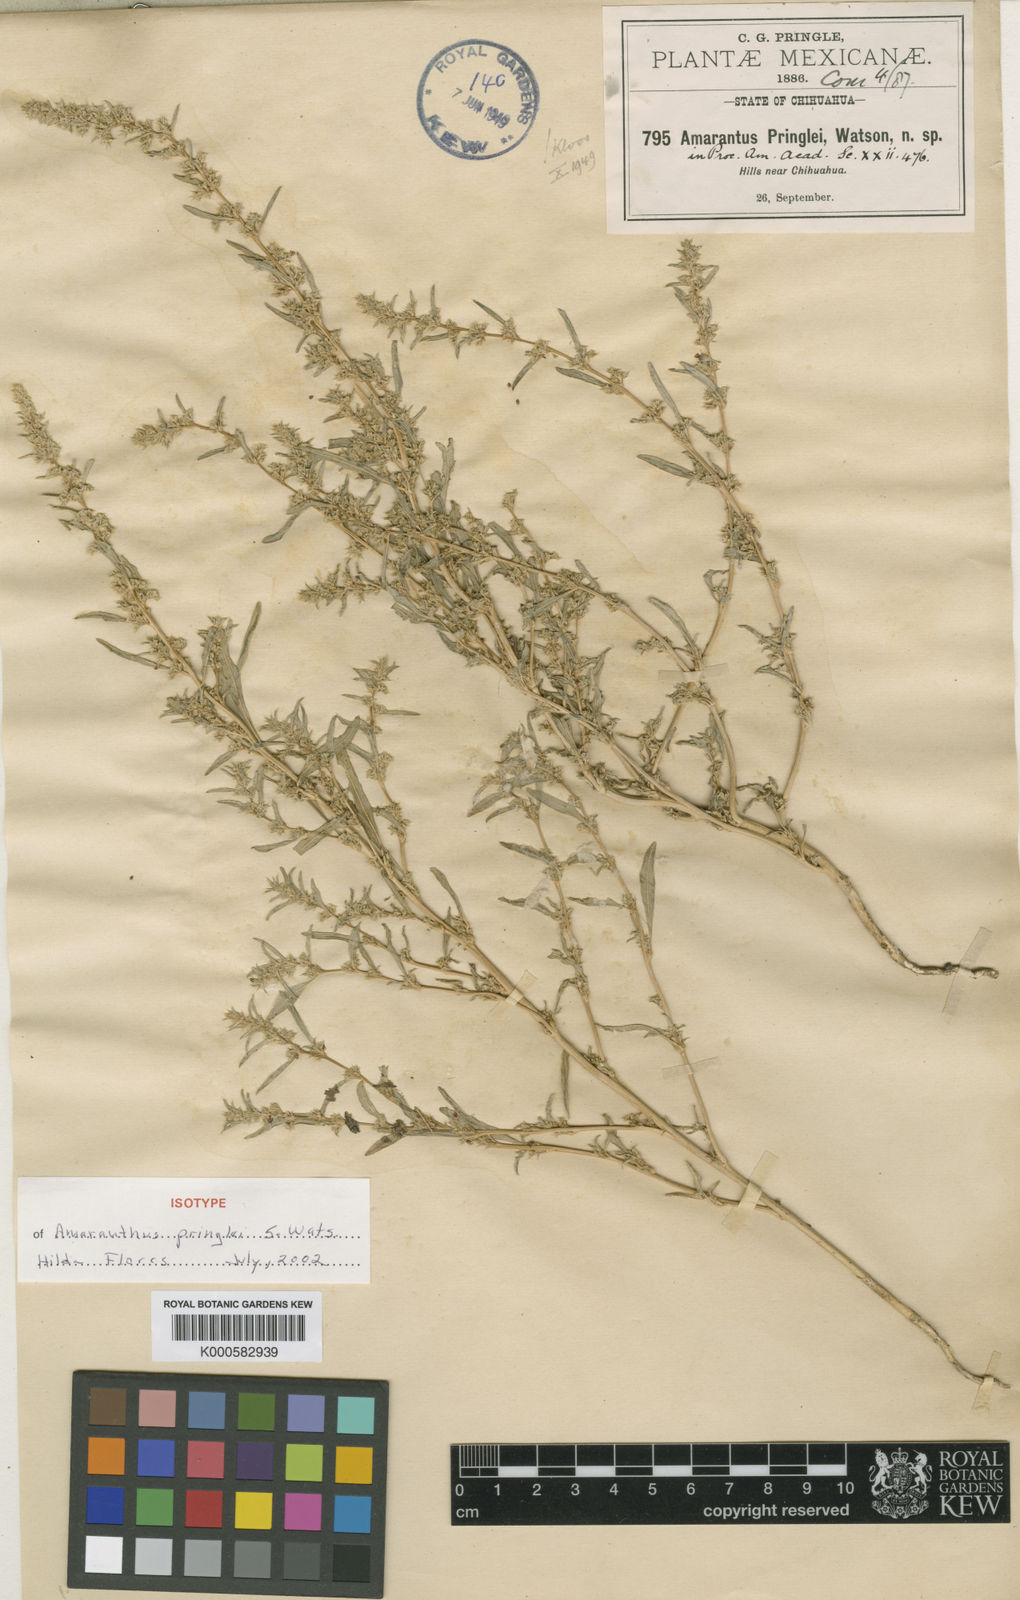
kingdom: Plantae
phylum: Tracheophyta
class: Magnoliopsida
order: Caryophyllales
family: Amaranthaceae
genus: Amaranthus
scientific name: Amaranthus torreyi
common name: Bigelow's amaranth
